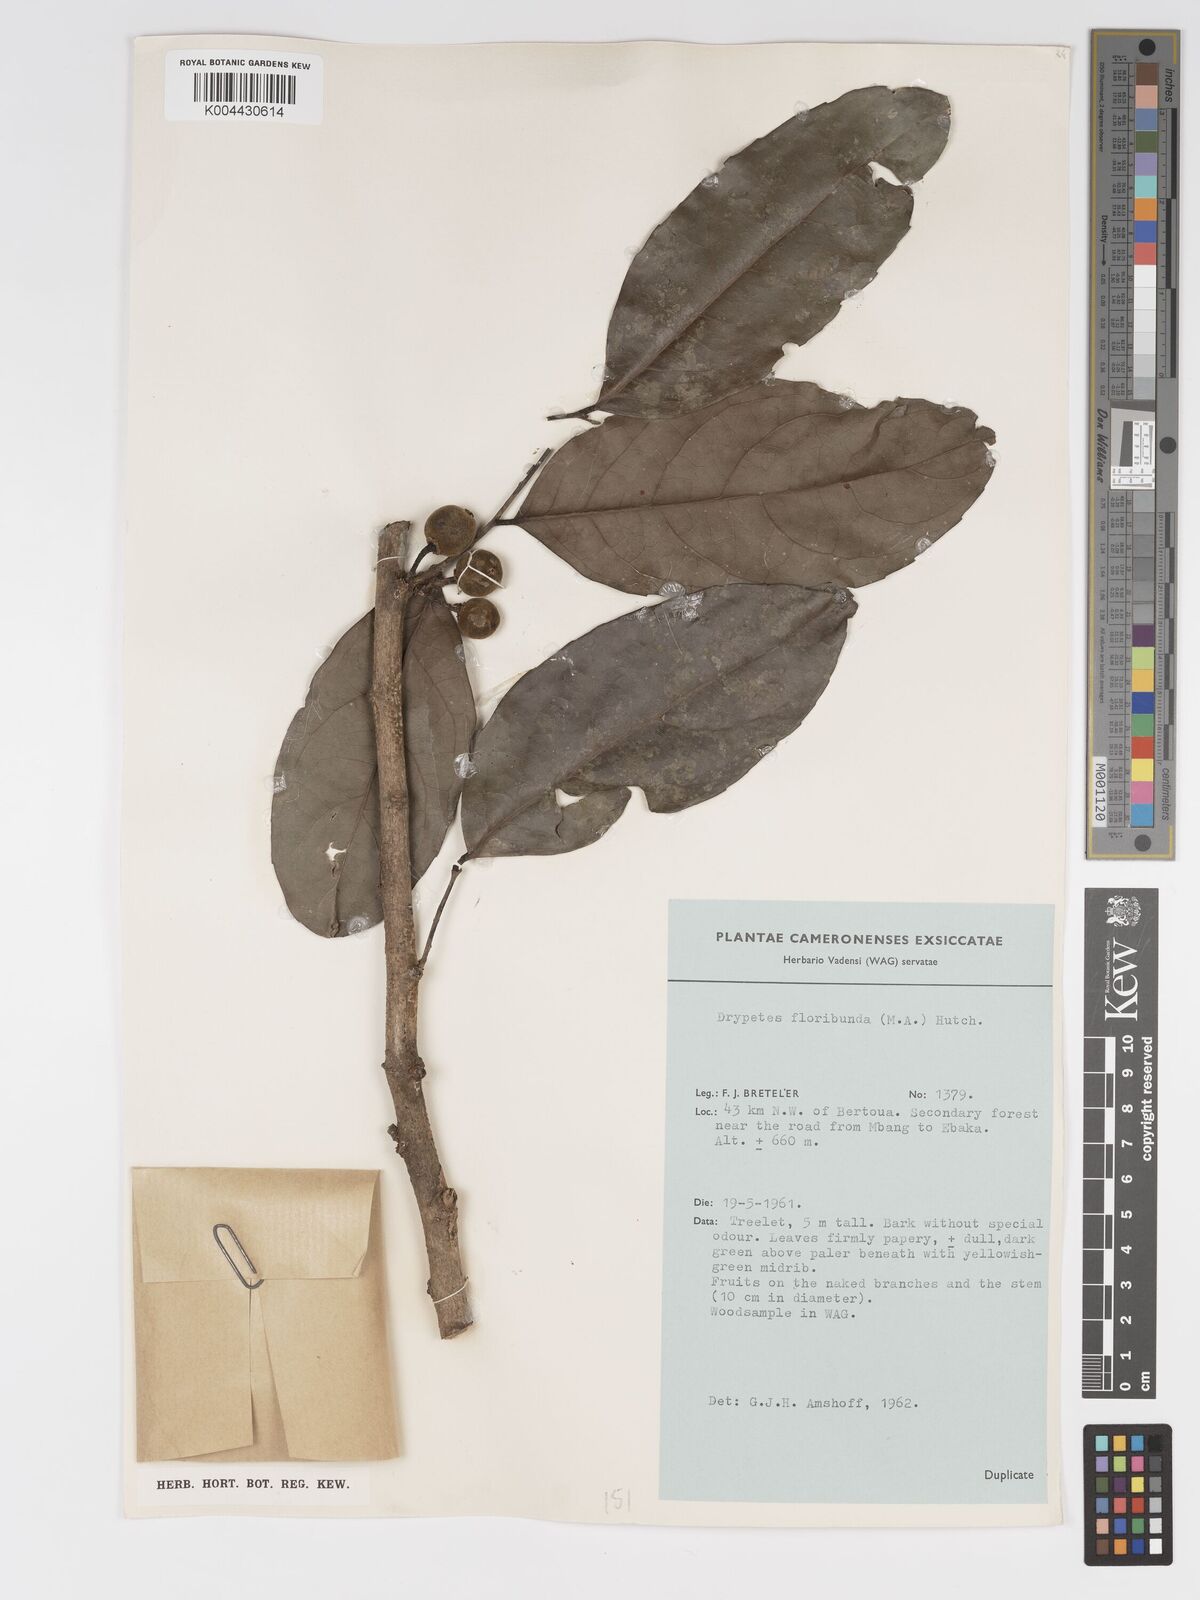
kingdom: Plantae
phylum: Tracheophyta
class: Magnoliopsida
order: Malpighiales
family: Putranjivaceae
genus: Drypetes
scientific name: Drypetes floribunda
